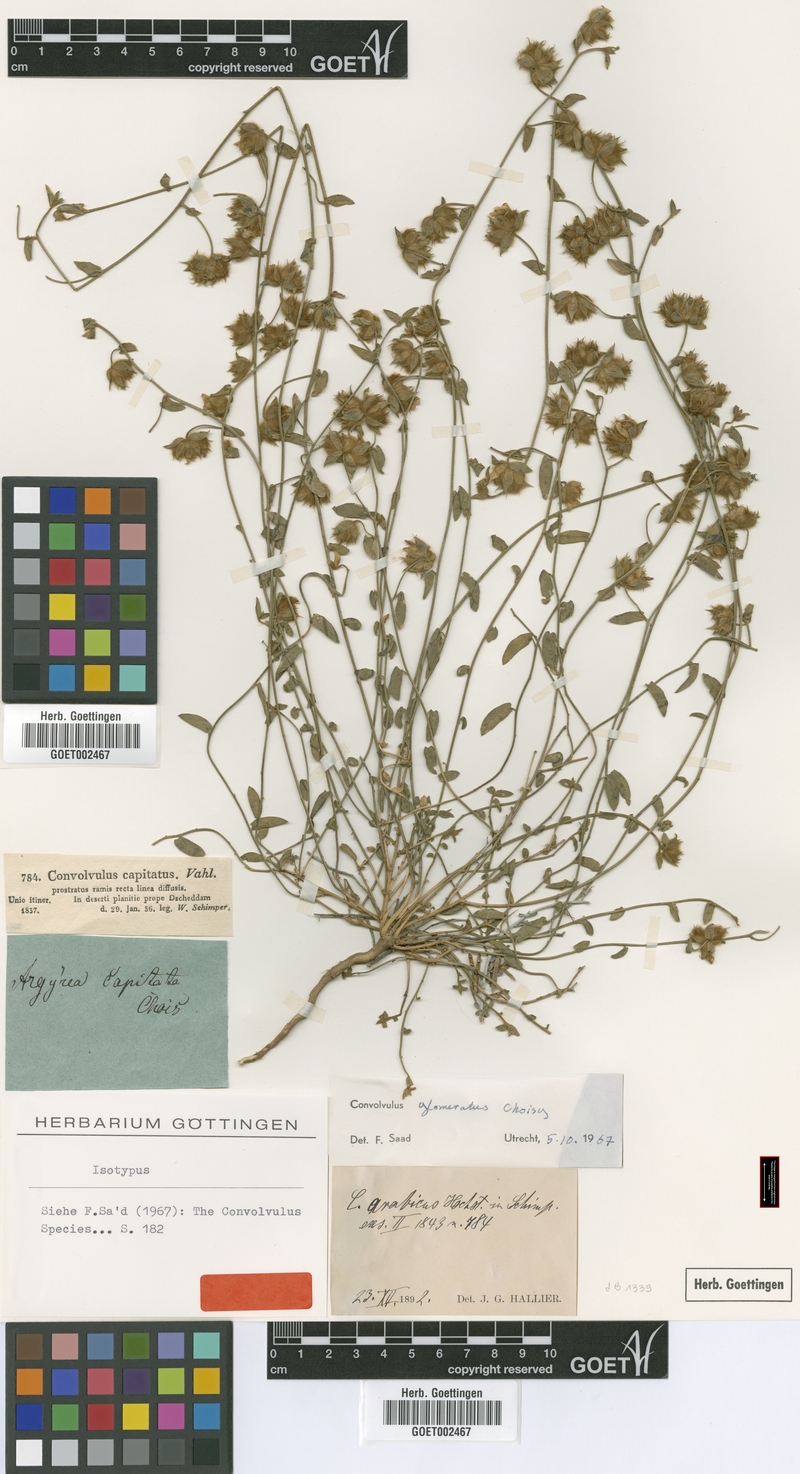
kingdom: Plantae
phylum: Tracheophyta
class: Magnoliopsida
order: Solanales
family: Convolvulaceae
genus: Convolvulus
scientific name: Convolvulus glomeratus
